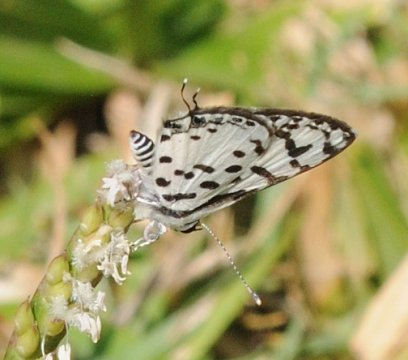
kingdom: Animalia
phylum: Arthropoda
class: Insecta
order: Lepidoptera
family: Lycaenidae
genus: Castalius
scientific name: Castalius calice
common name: White Pie
